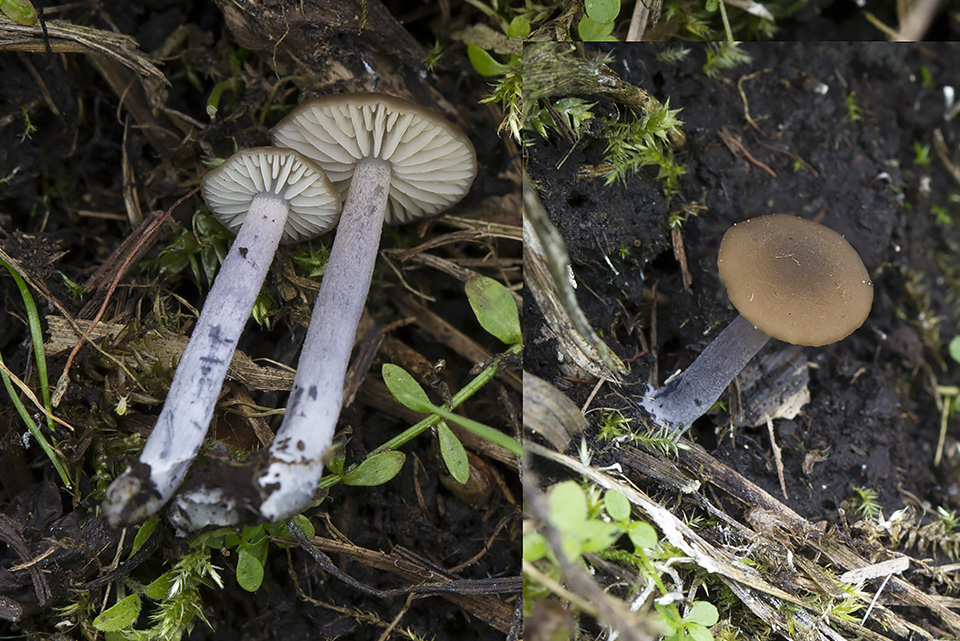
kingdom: Fungi
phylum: Basidiomycota
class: Agaricomycetes
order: Agaricales
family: Entolomataceae
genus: Entoloma
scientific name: Entoloma glaucobasis
